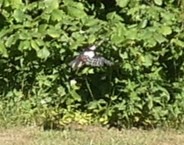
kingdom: Animalia
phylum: Chordata
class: Aves
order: Piciformes
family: Picidae
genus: Dendrocopos
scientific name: Dendrocopos major
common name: Stor flagspætte
